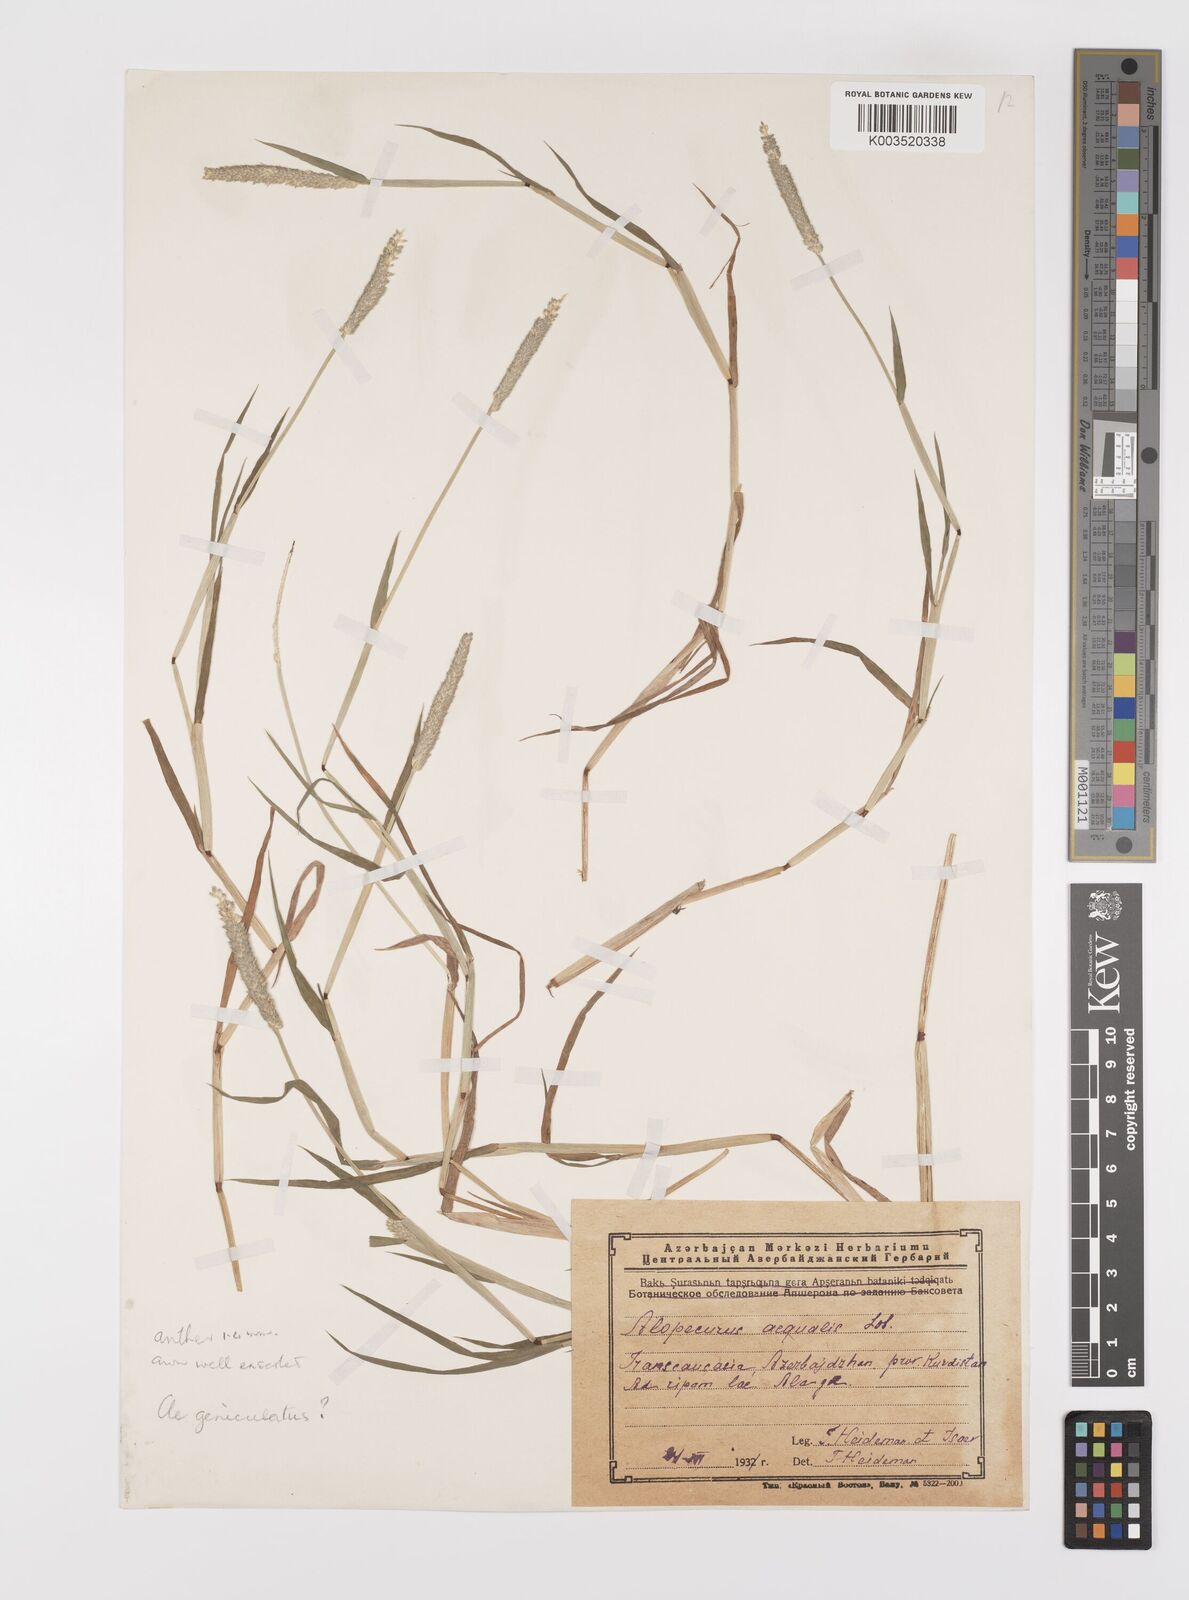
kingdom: Plantae
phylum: Tracheophyta
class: Liliopsida
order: Poales
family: Poaceae
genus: Alopecurus
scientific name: Alopecurus aequalis
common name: Orange foxtail
